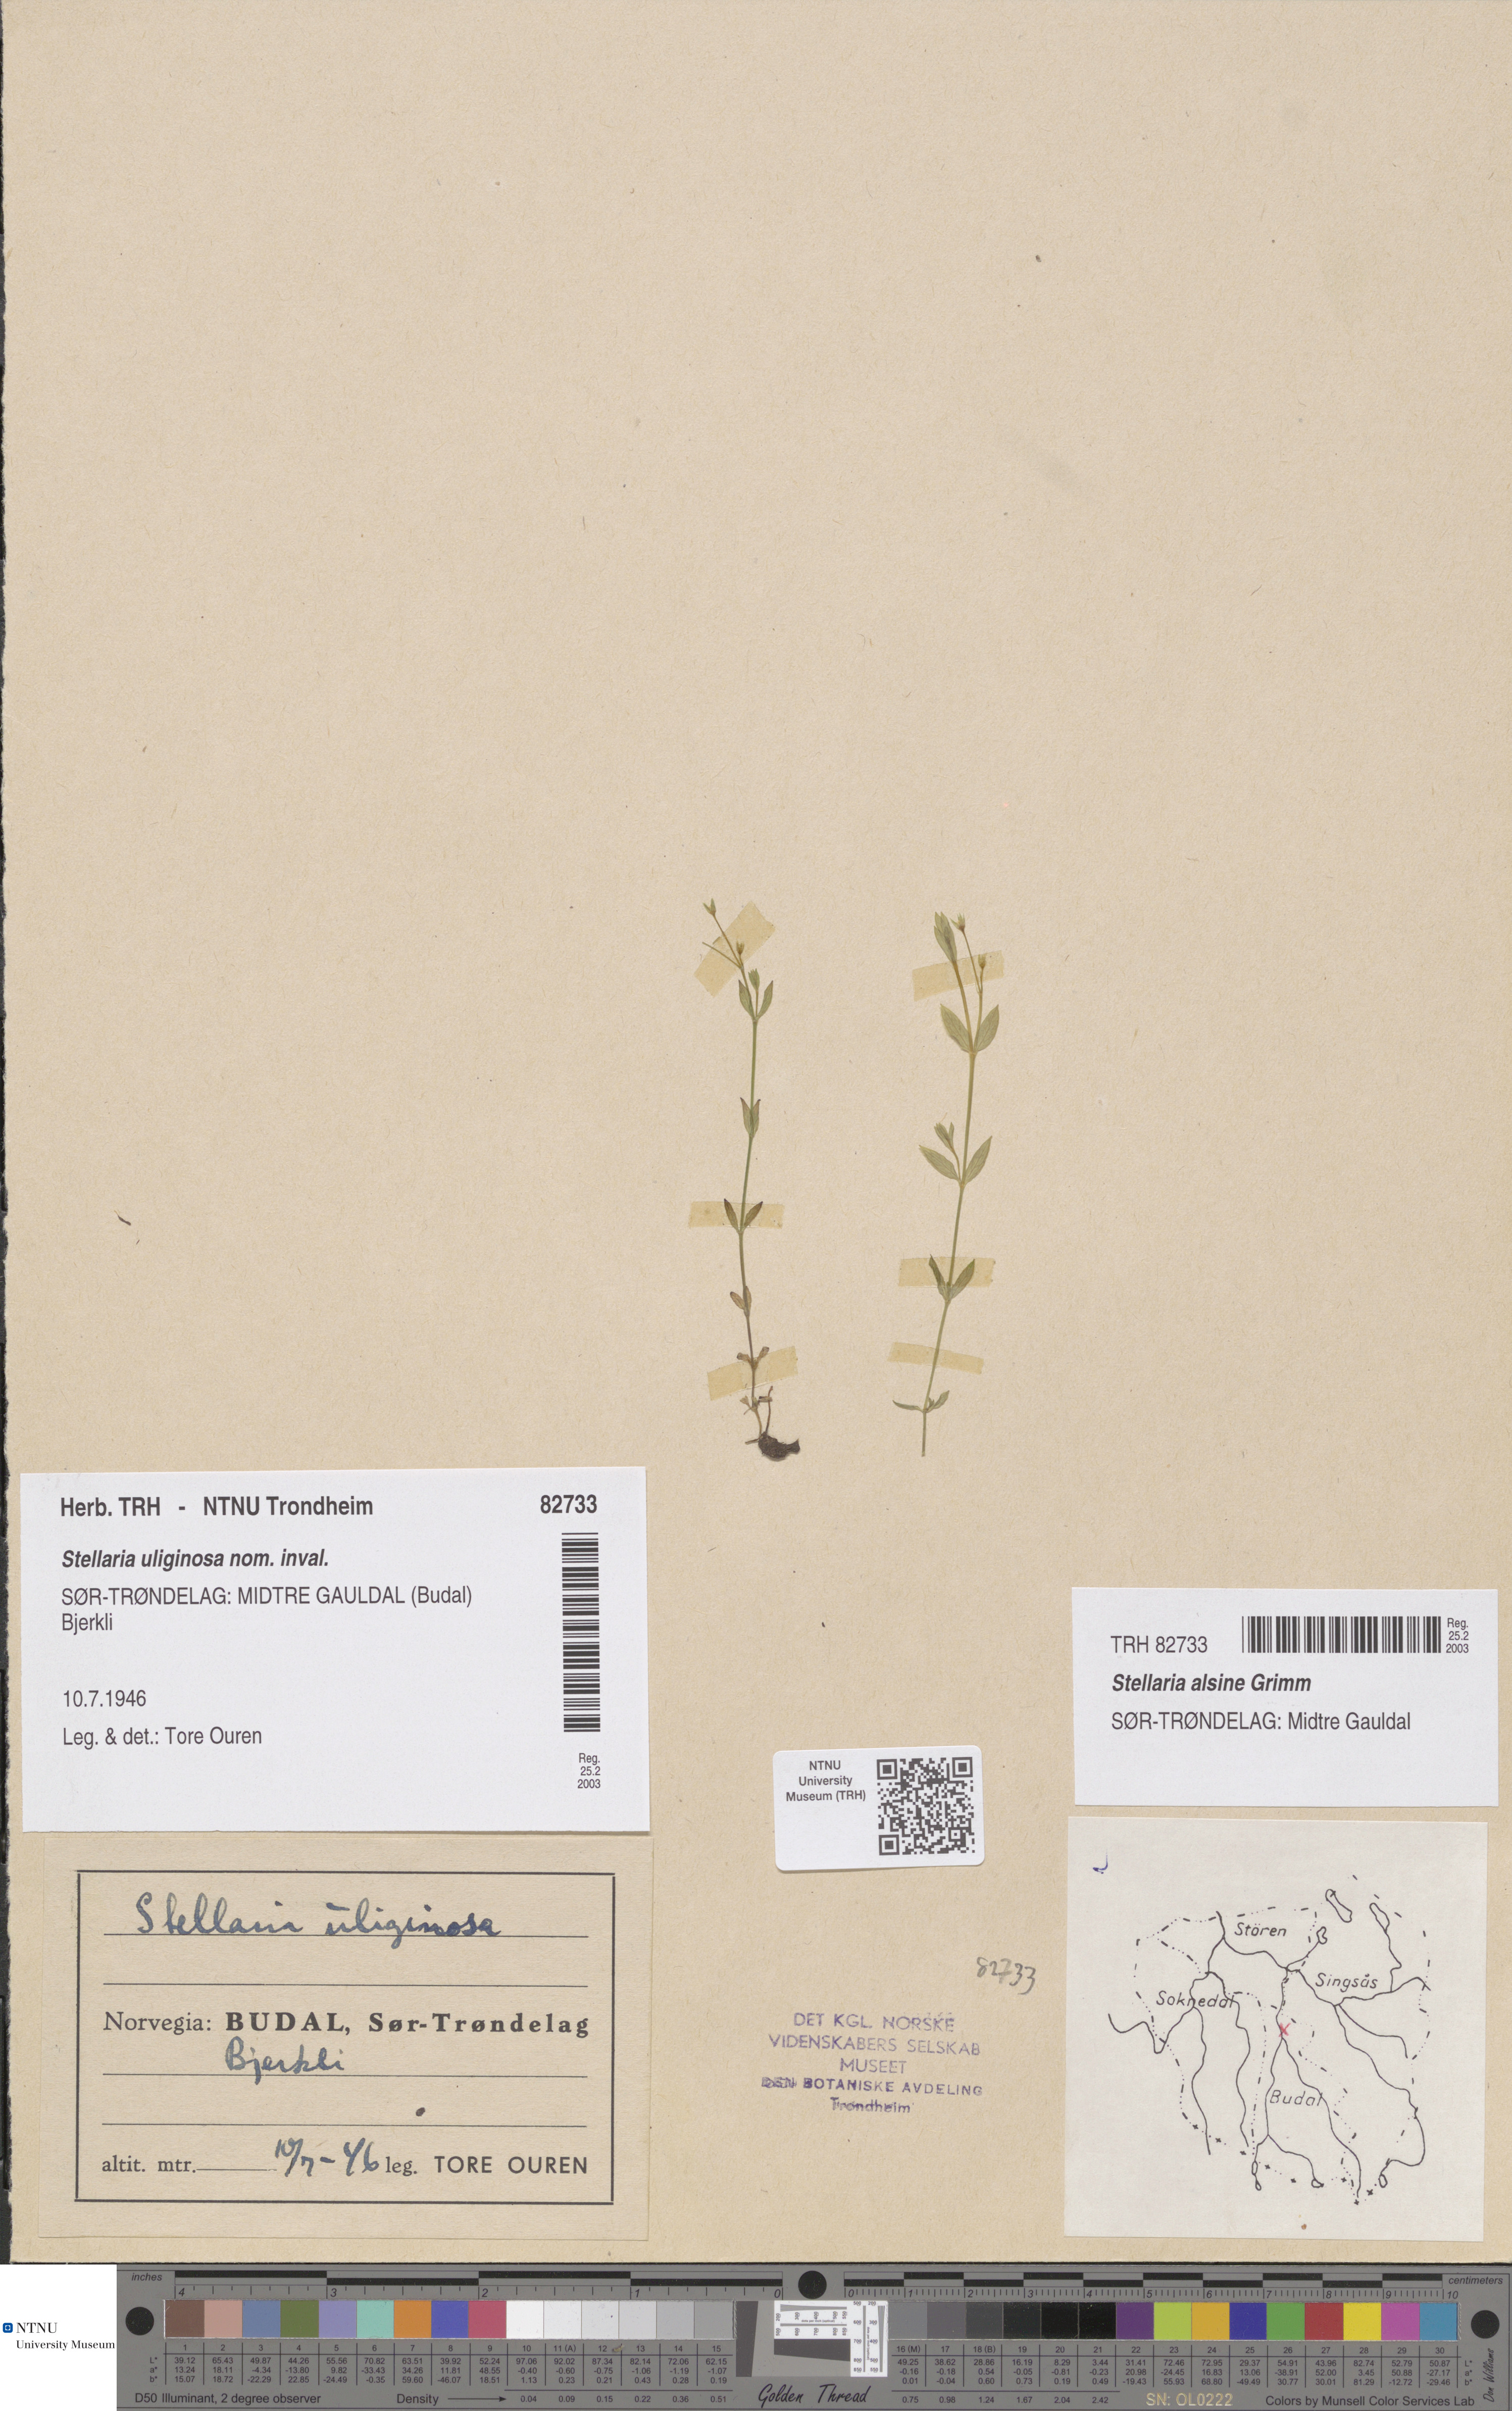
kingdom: Plantae
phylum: Tracheophyta
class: Magnoliopsida
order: Caryophyllales
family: Caryophyllaceae
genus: Stellaria
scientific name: Stellaria alsine
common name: Bog stitchwort
